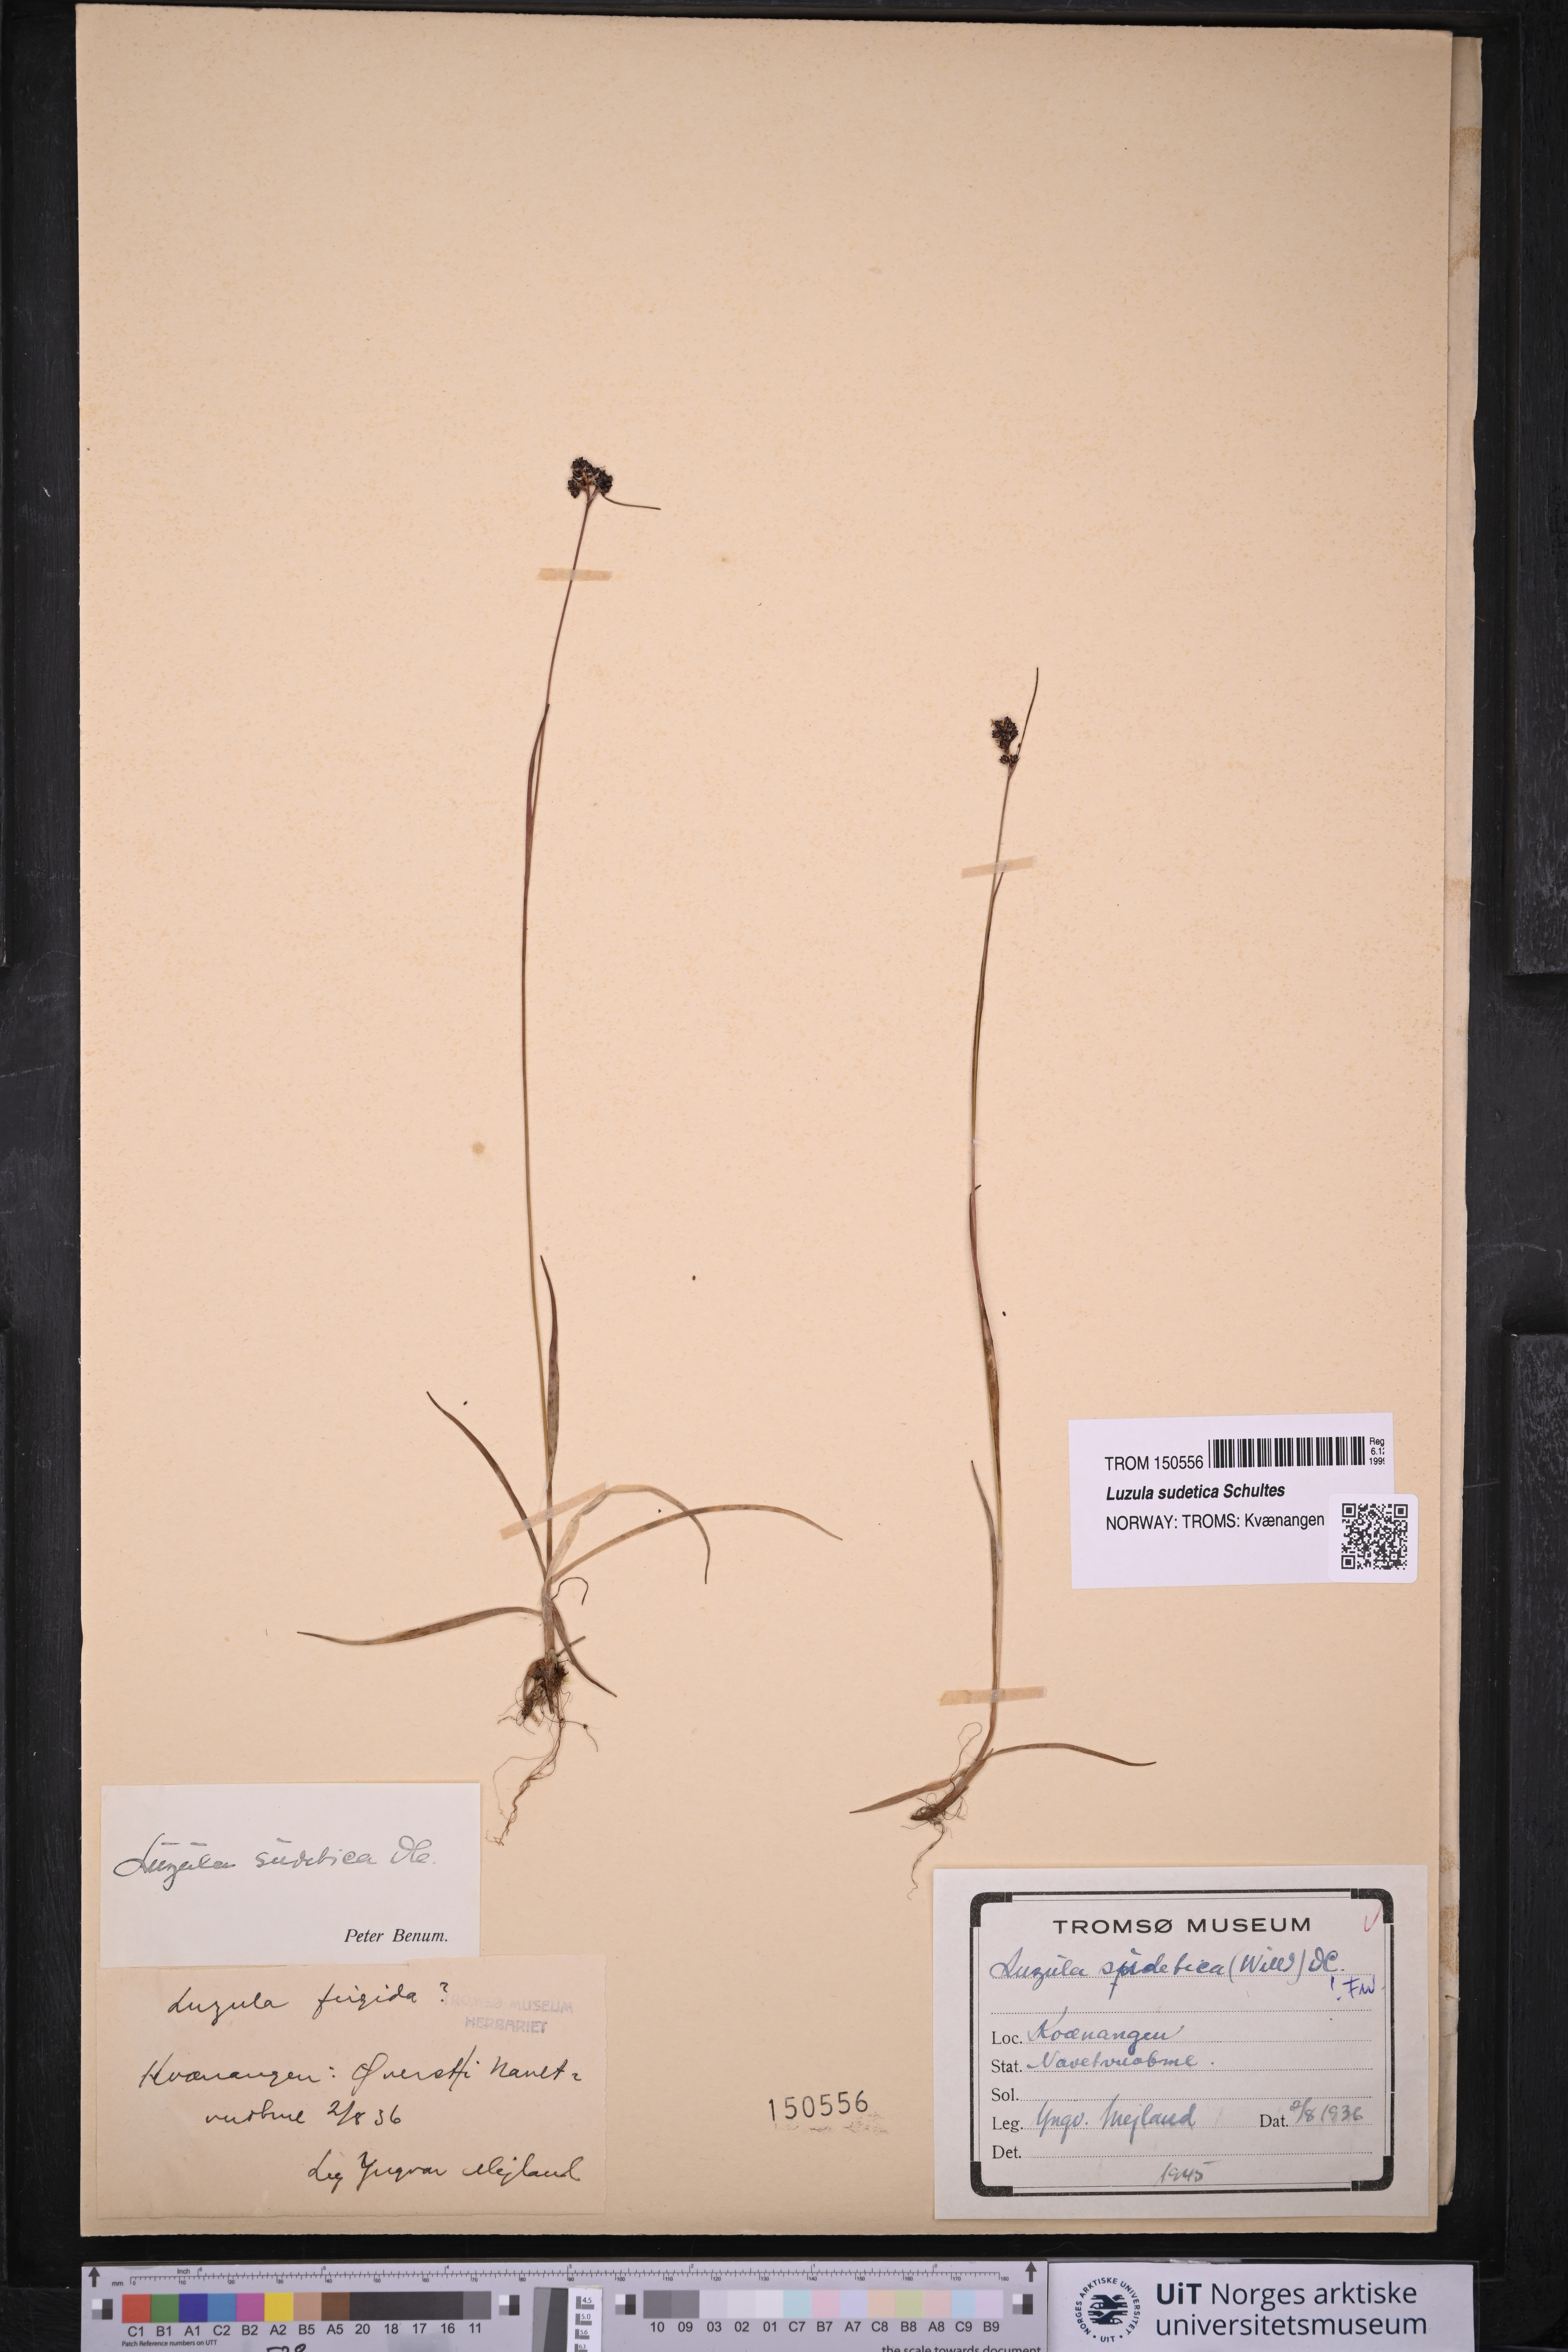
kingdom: Plantae
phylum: Tracheophyta
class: Liliopsida
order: Poales
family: Juncaceae
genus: Luzula
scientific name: Luzula sudetica
